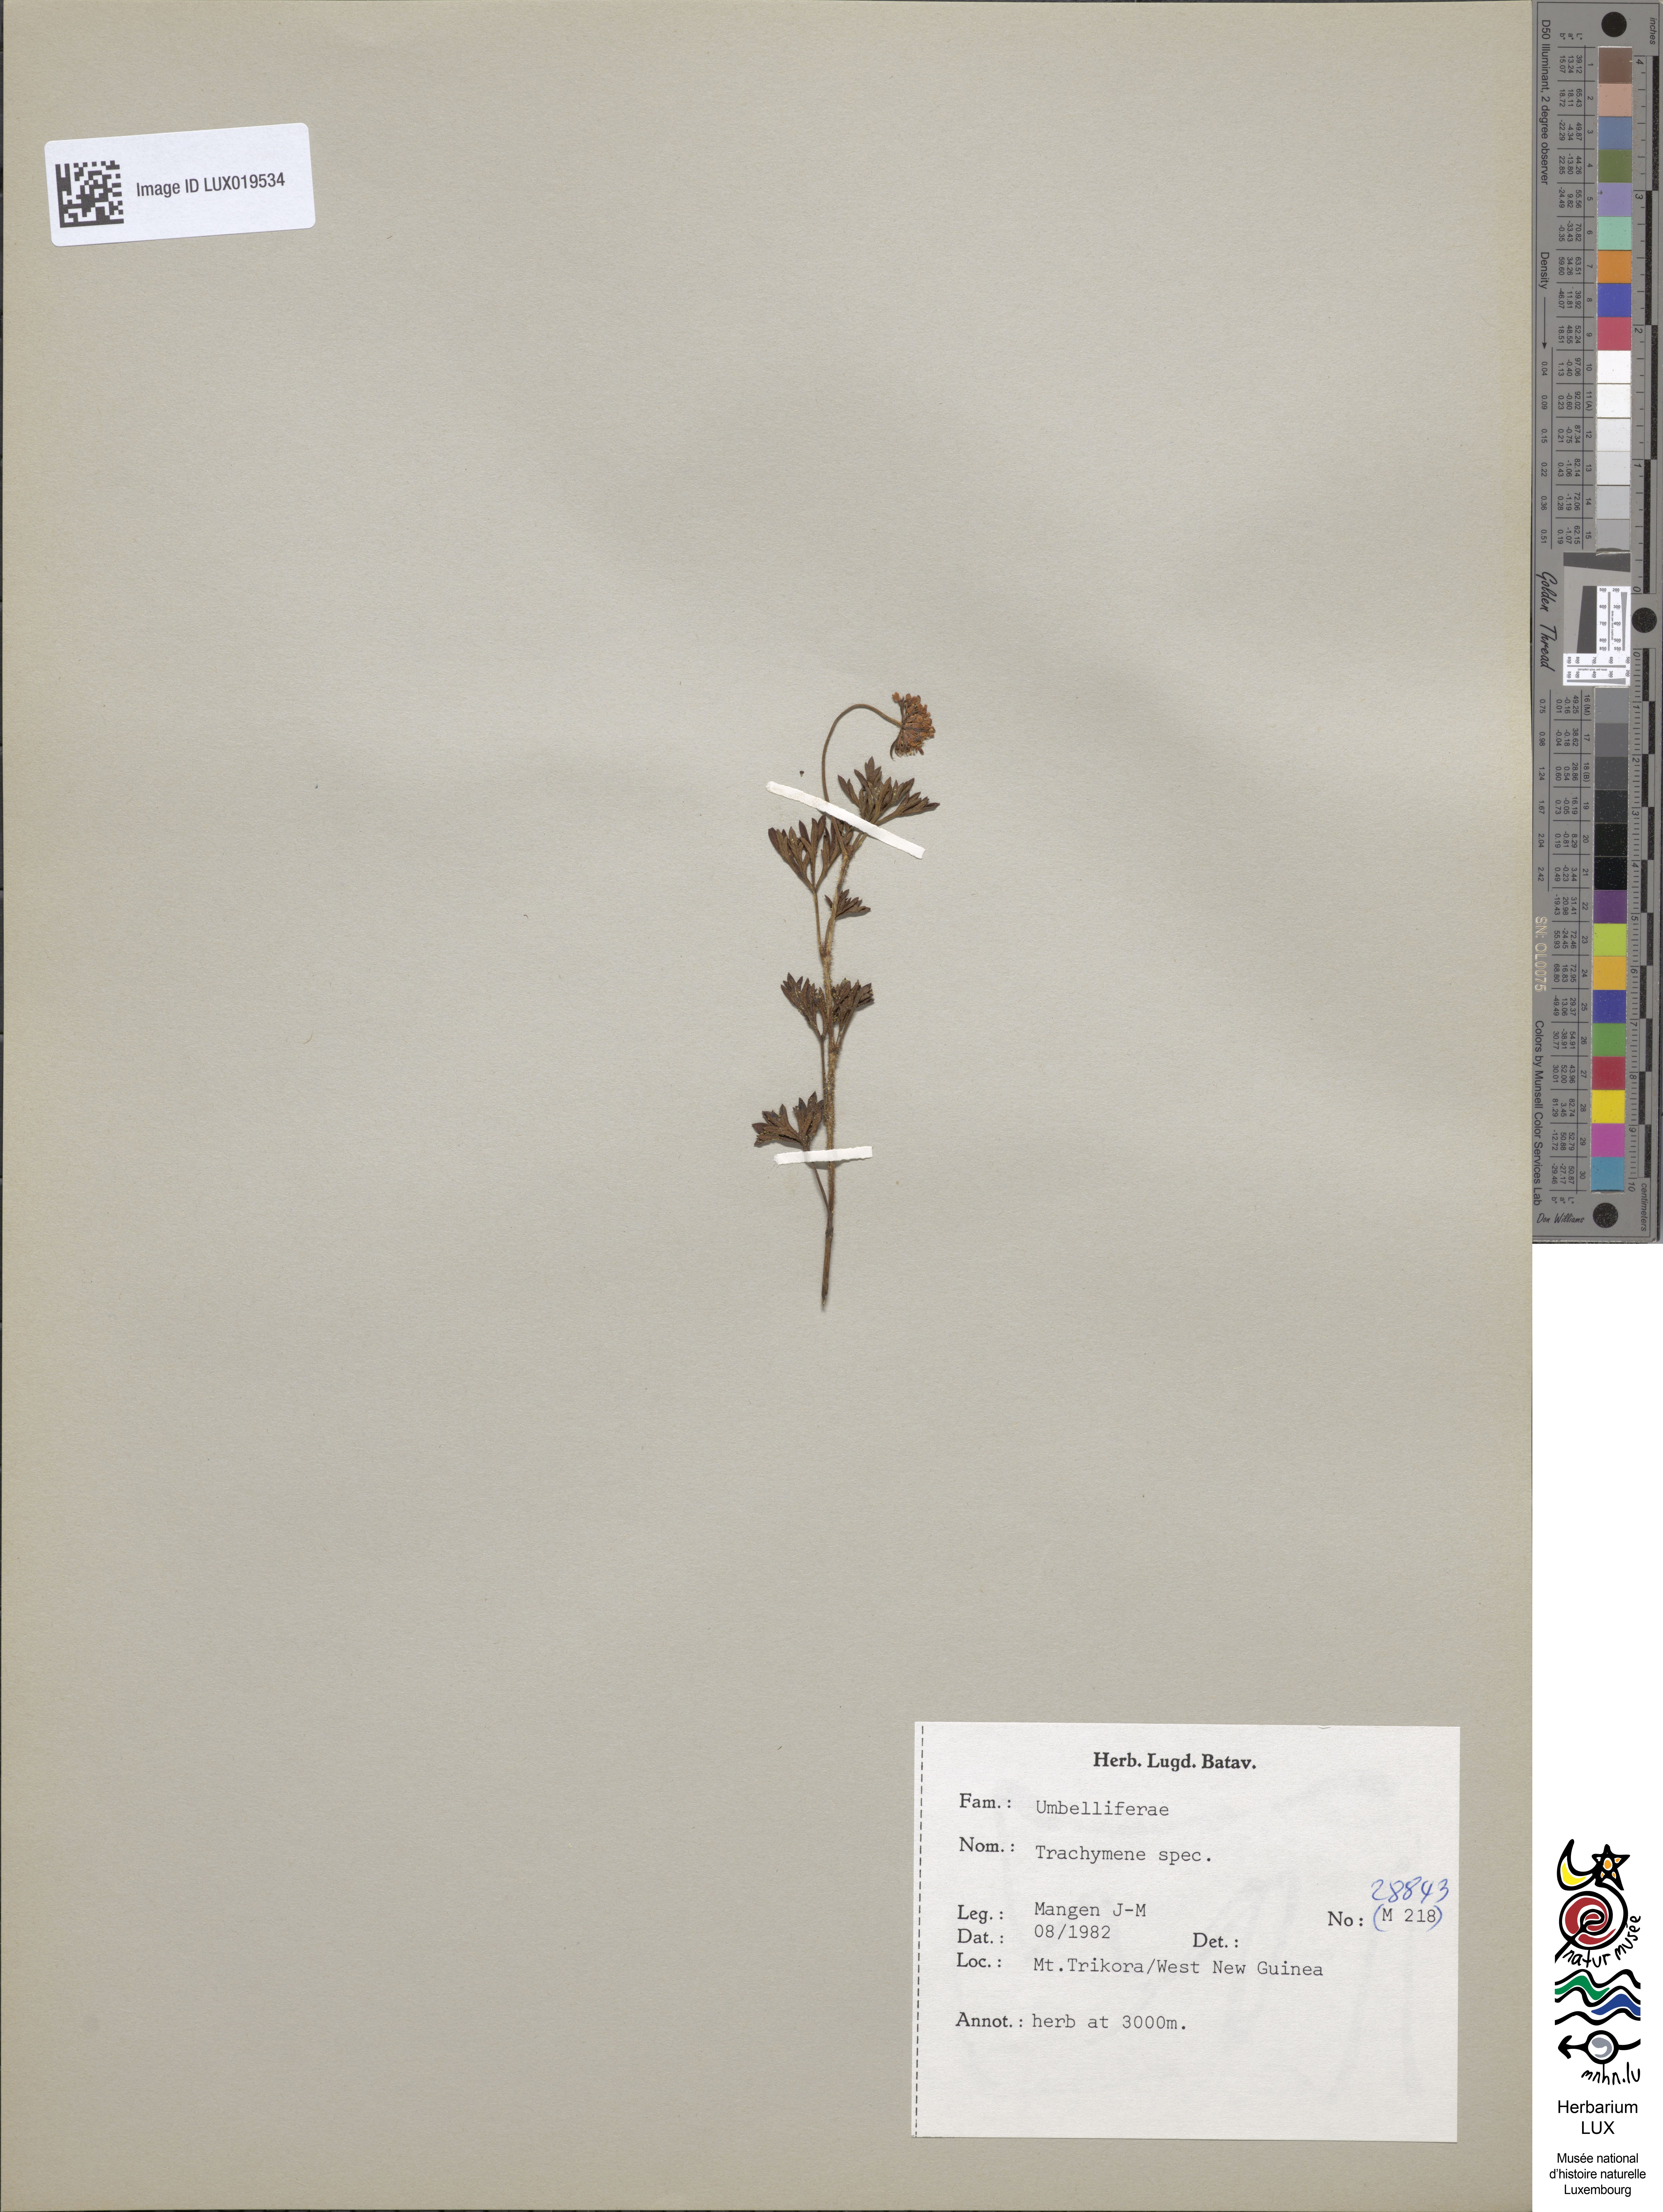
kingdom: Plantae
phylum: Tracheophyta
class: Magnoliopsida
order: Apiales
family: Araliaceae
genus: Trachymene
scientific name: Trachymene
